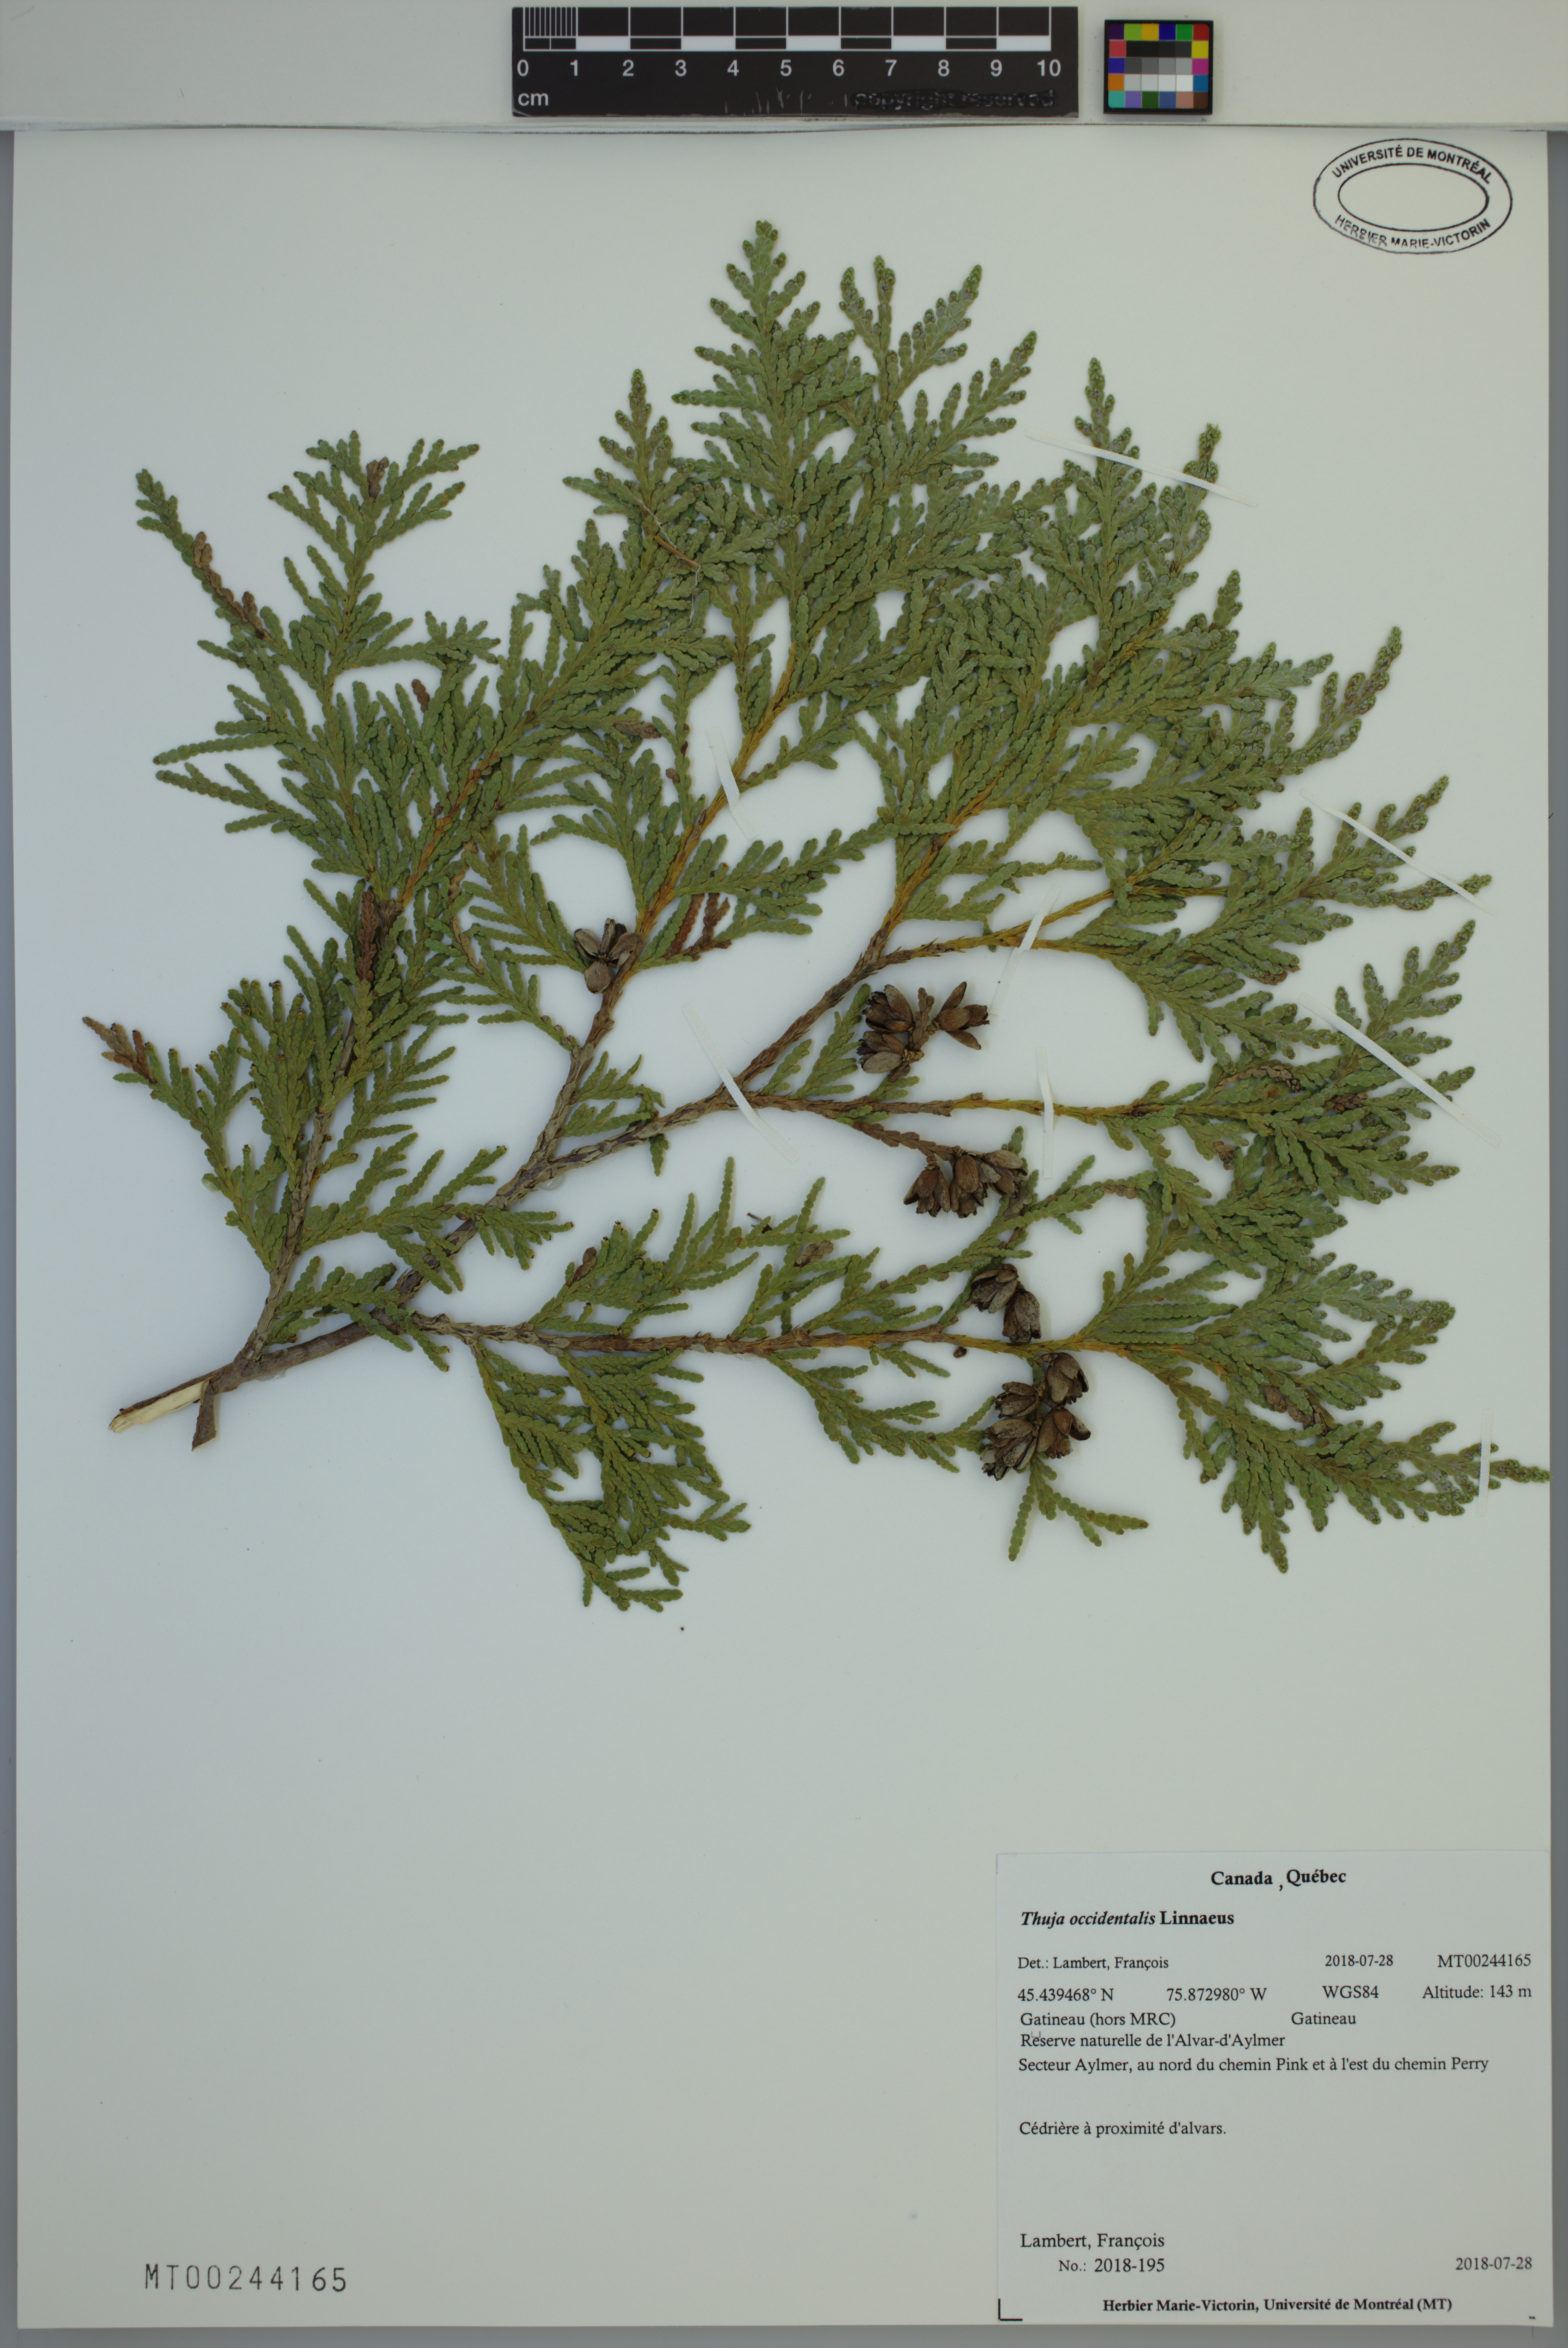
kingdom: Plantae
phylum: Tracheophyta
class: Pinopsida
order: Pinales
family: Cupressaceae
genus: Thuja
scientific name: Thuja occidentalis
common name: Northern white-cedar
